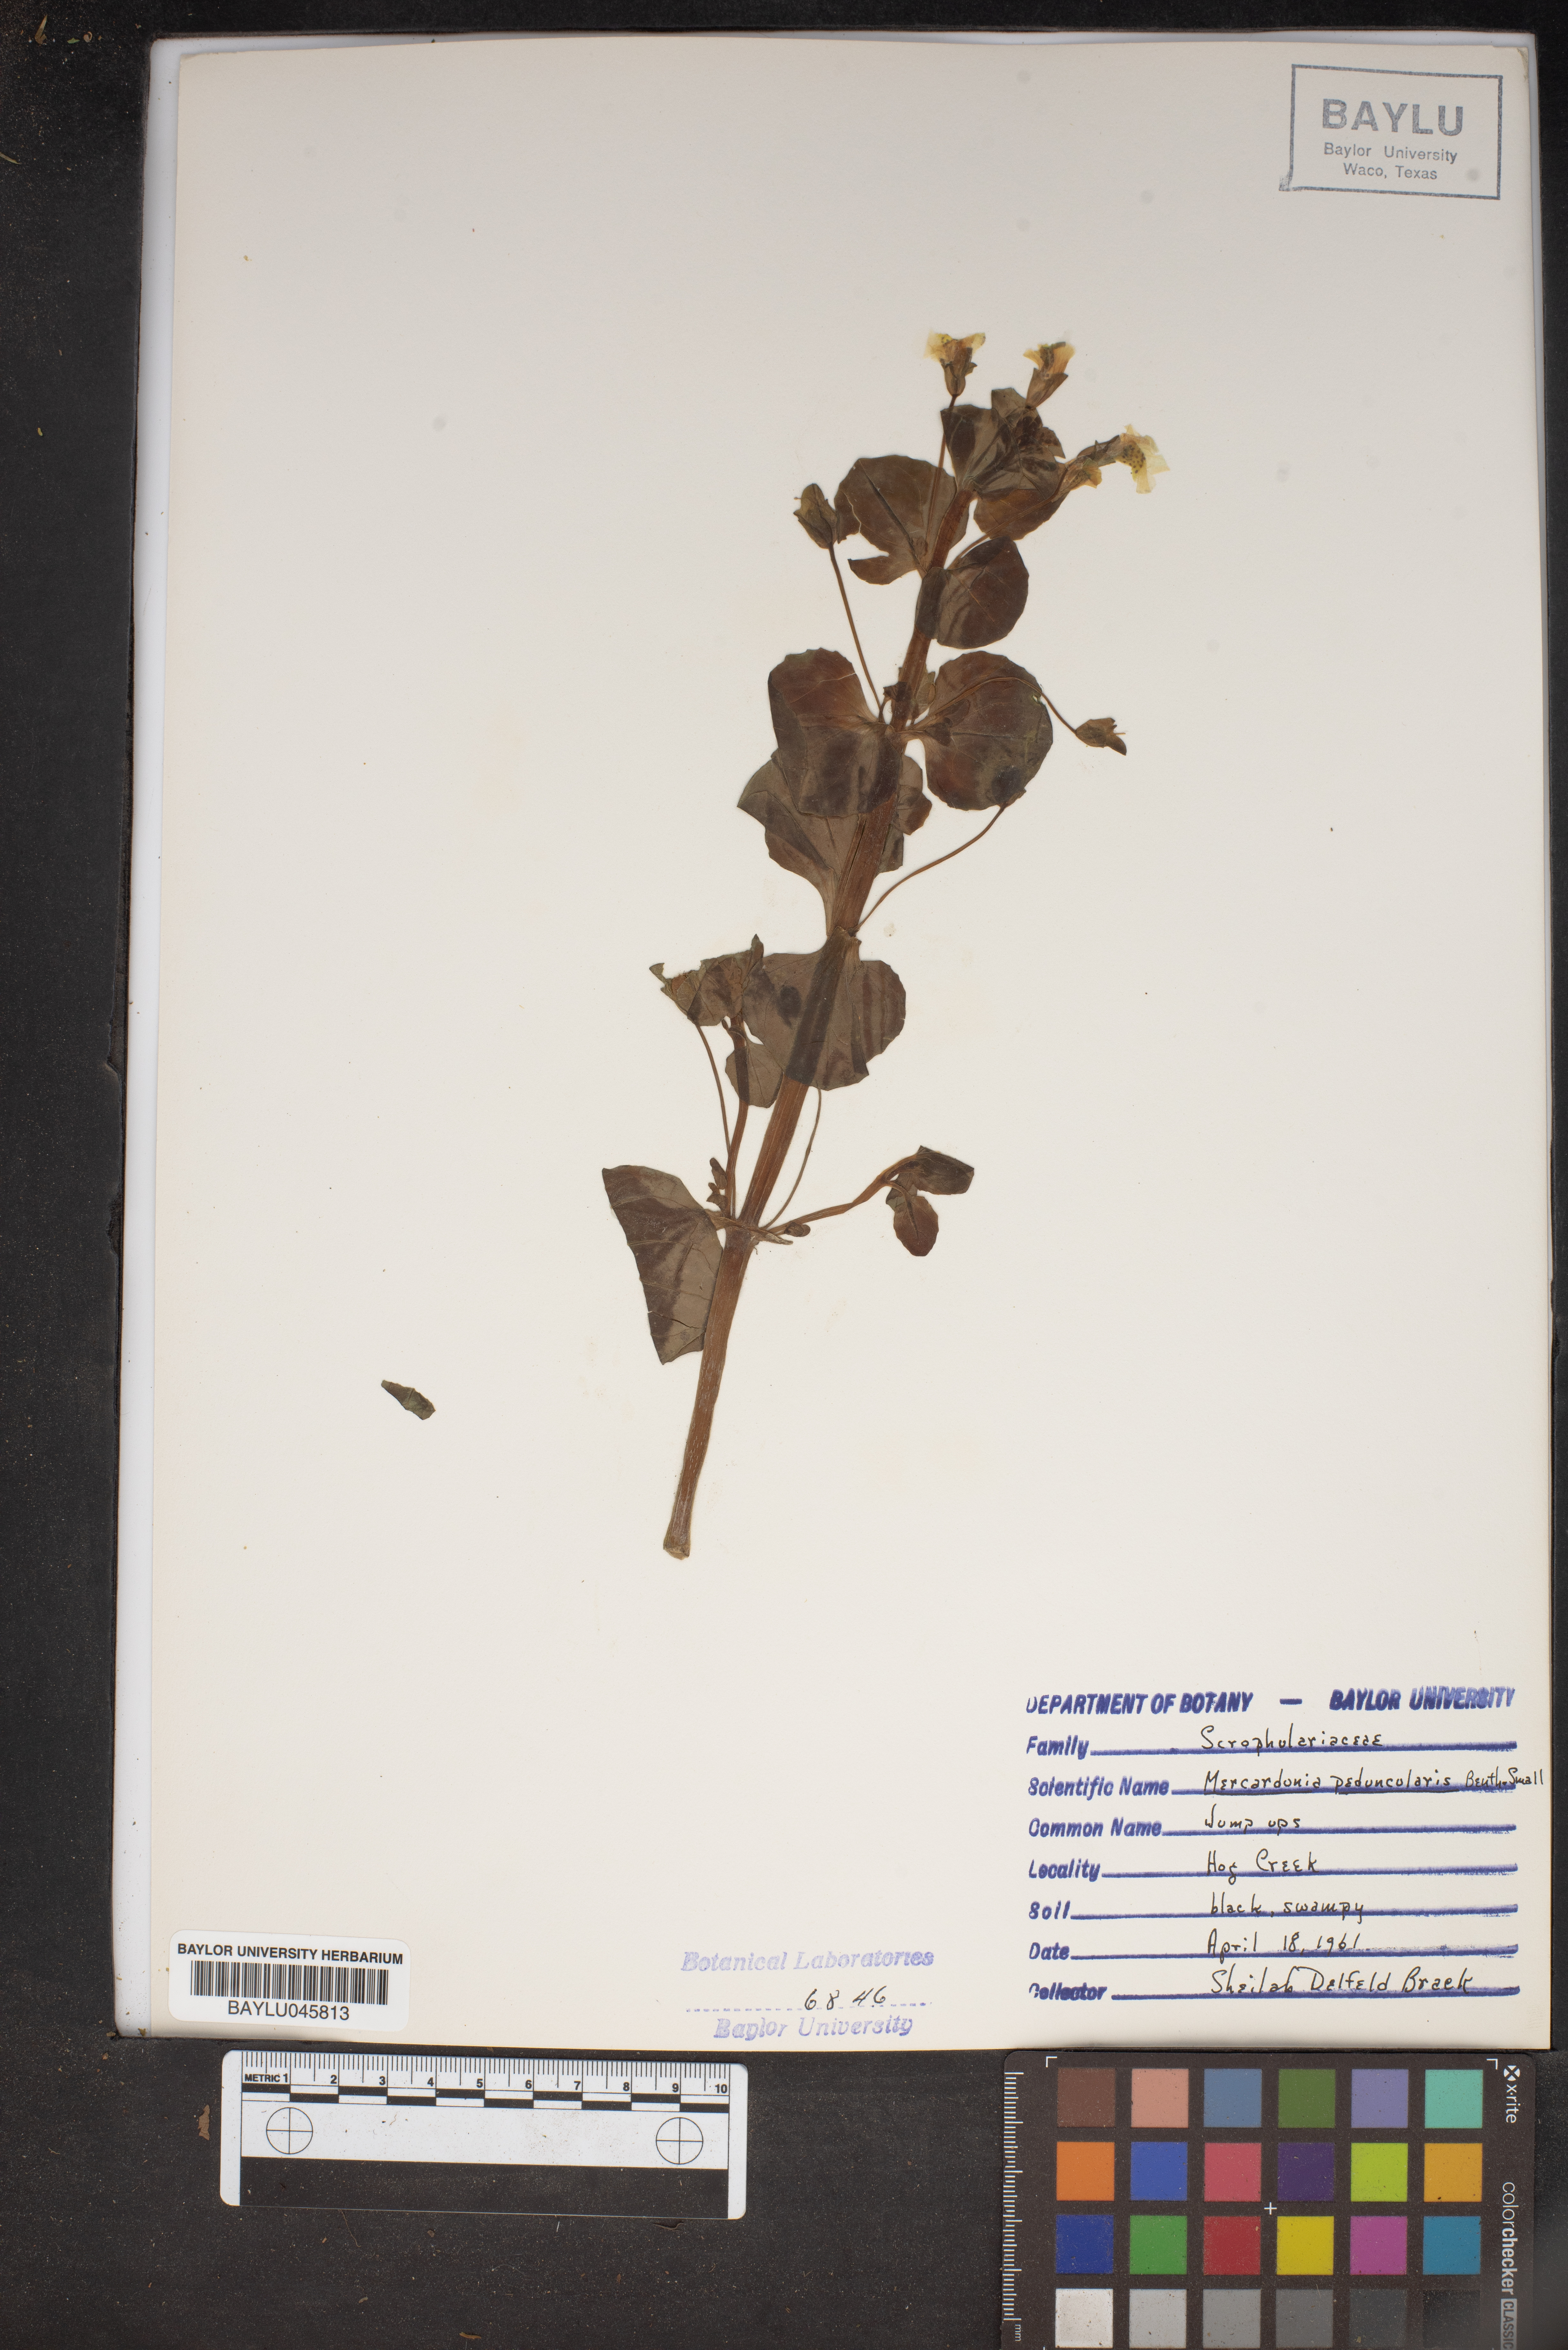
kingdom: Plantae
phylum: Tracheophyta
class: Magnoliopsida
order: Lamiales
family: Plantaginaceae
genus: Mecardonia
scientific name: Mecardonia procumbens
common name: Baby jump-up
